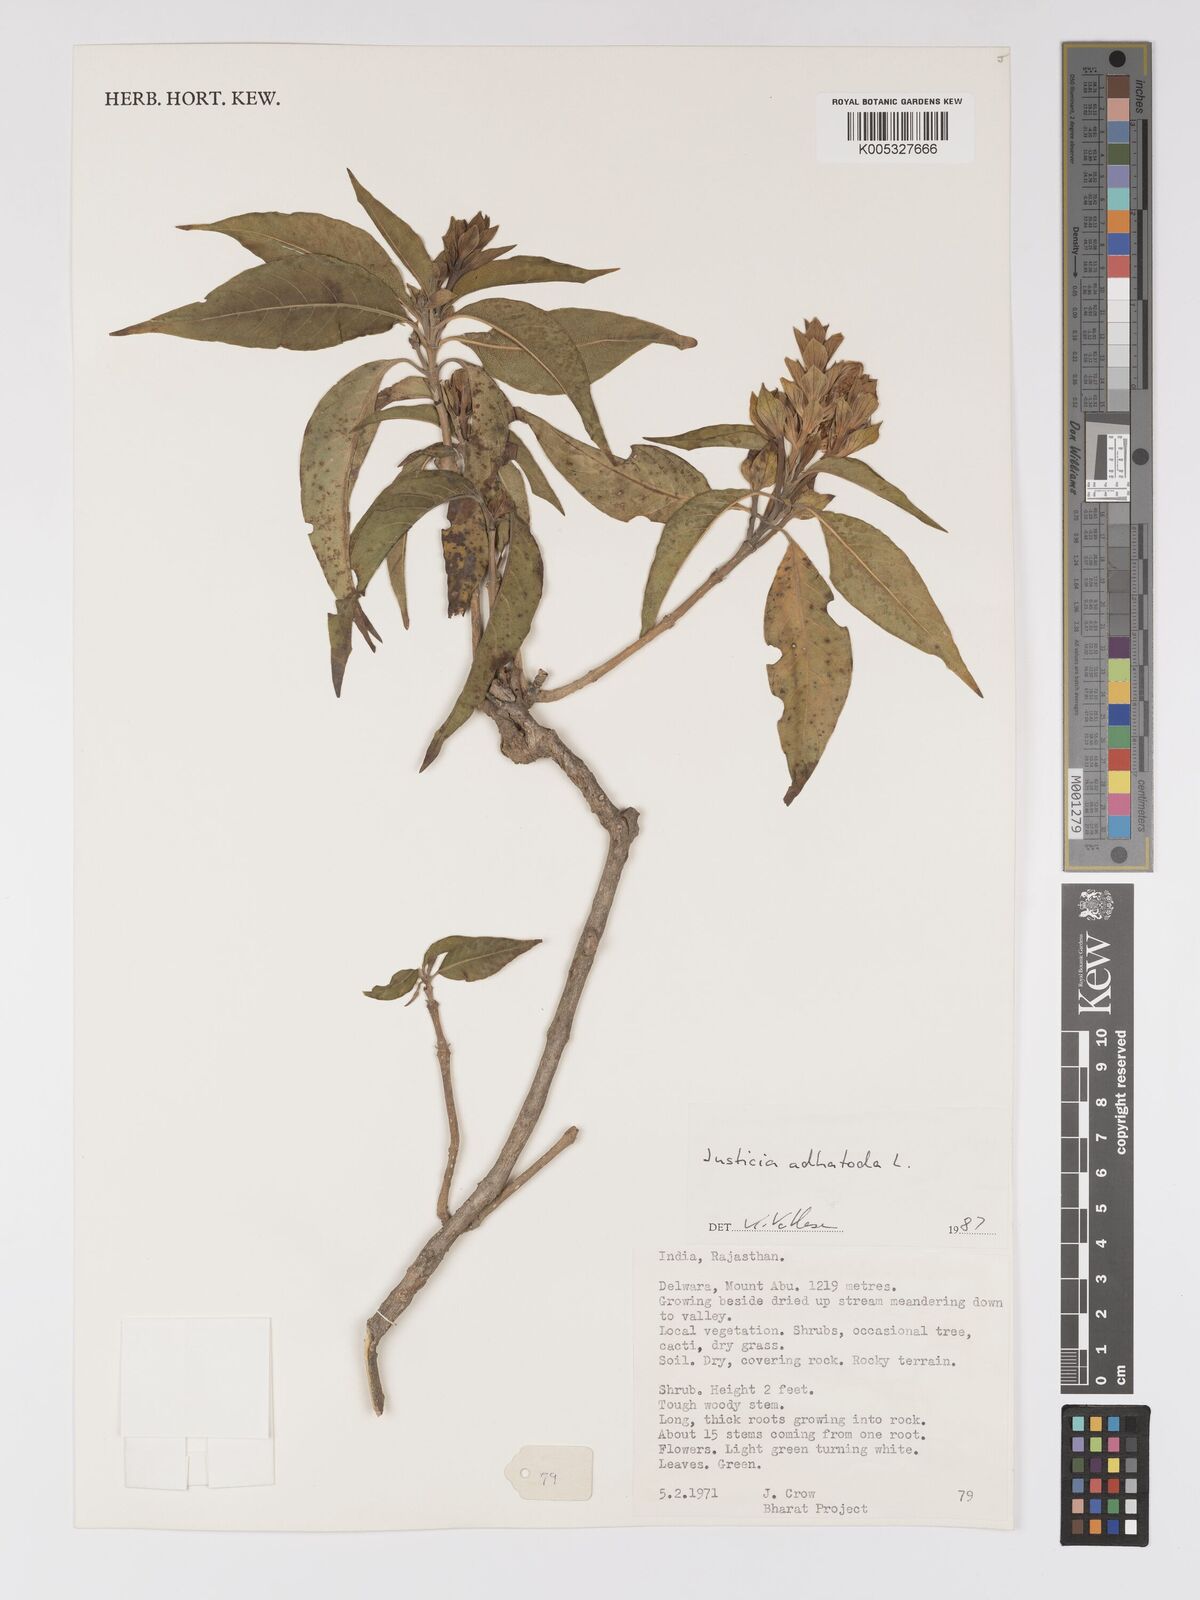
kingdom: Plantae
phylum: Tracheophyta
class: Magnoliopsida
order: Lamiales
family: Acanthaceae
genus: Ecbolium
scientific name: Ecbolium ligustrinum
